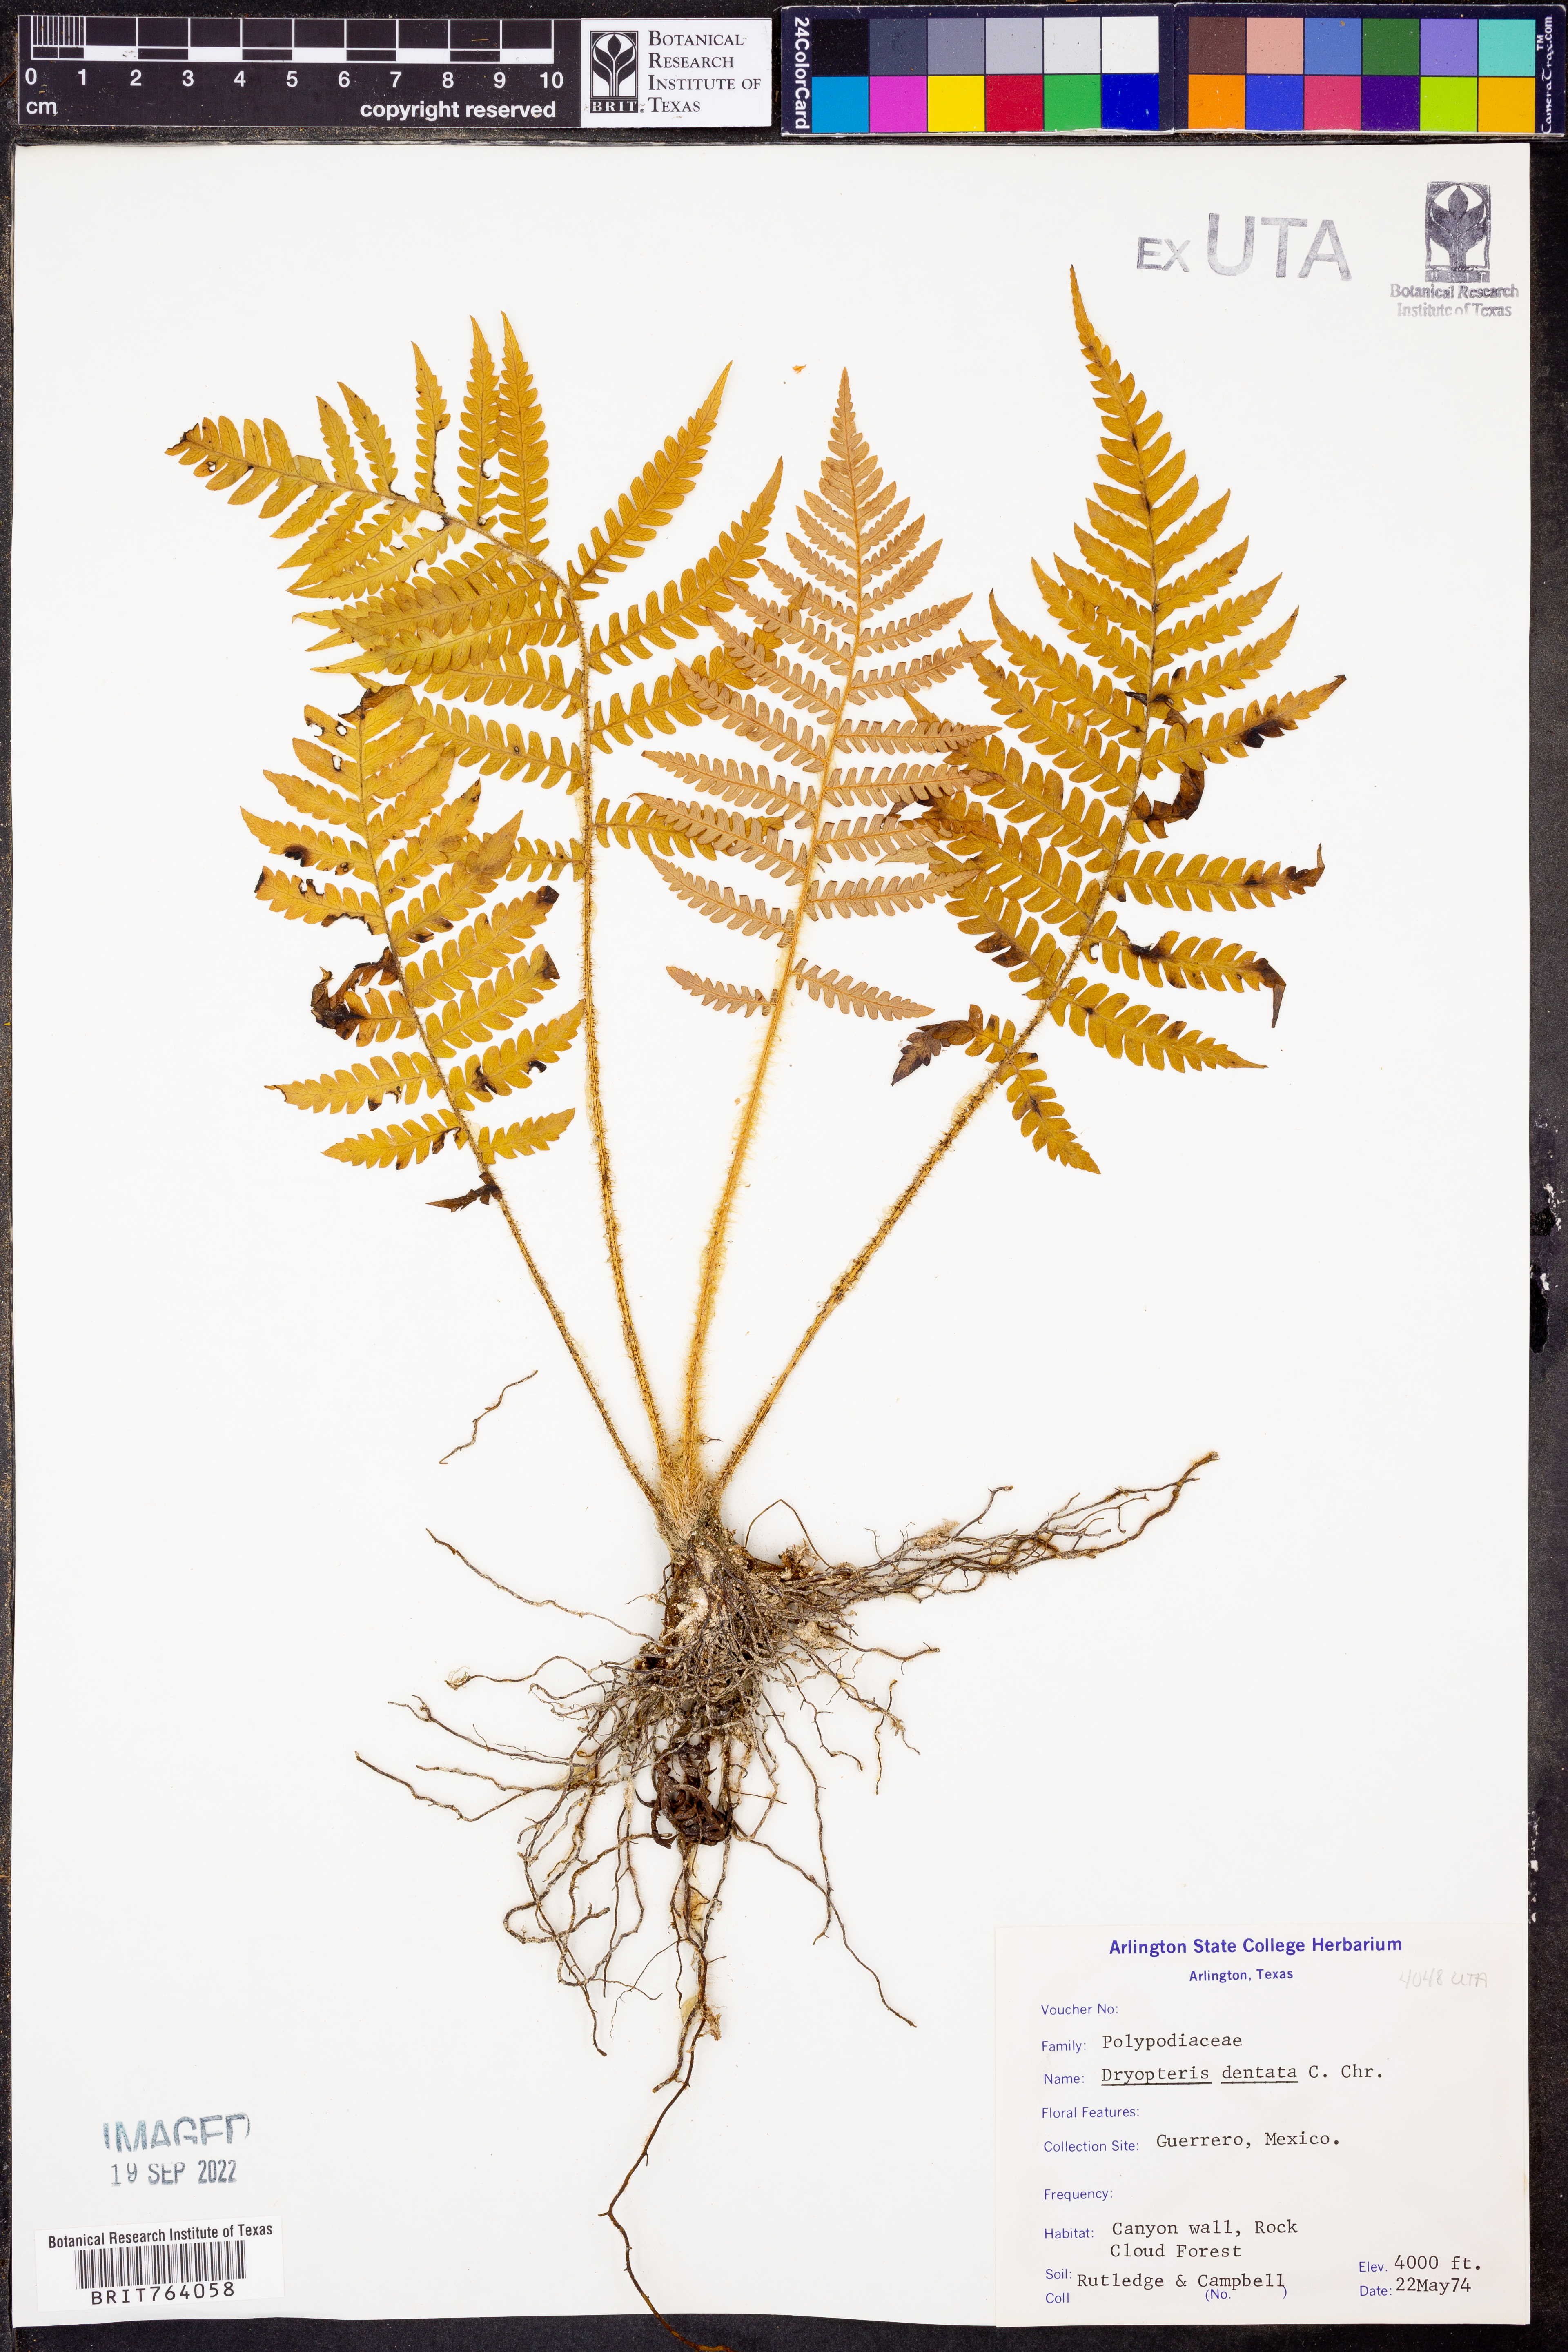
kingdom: Plantae
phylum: Tracheophyta
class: Polypodiopsida
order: Polypodiales
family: Thelypteridaceae
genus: Christella
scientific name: Christella dentata
